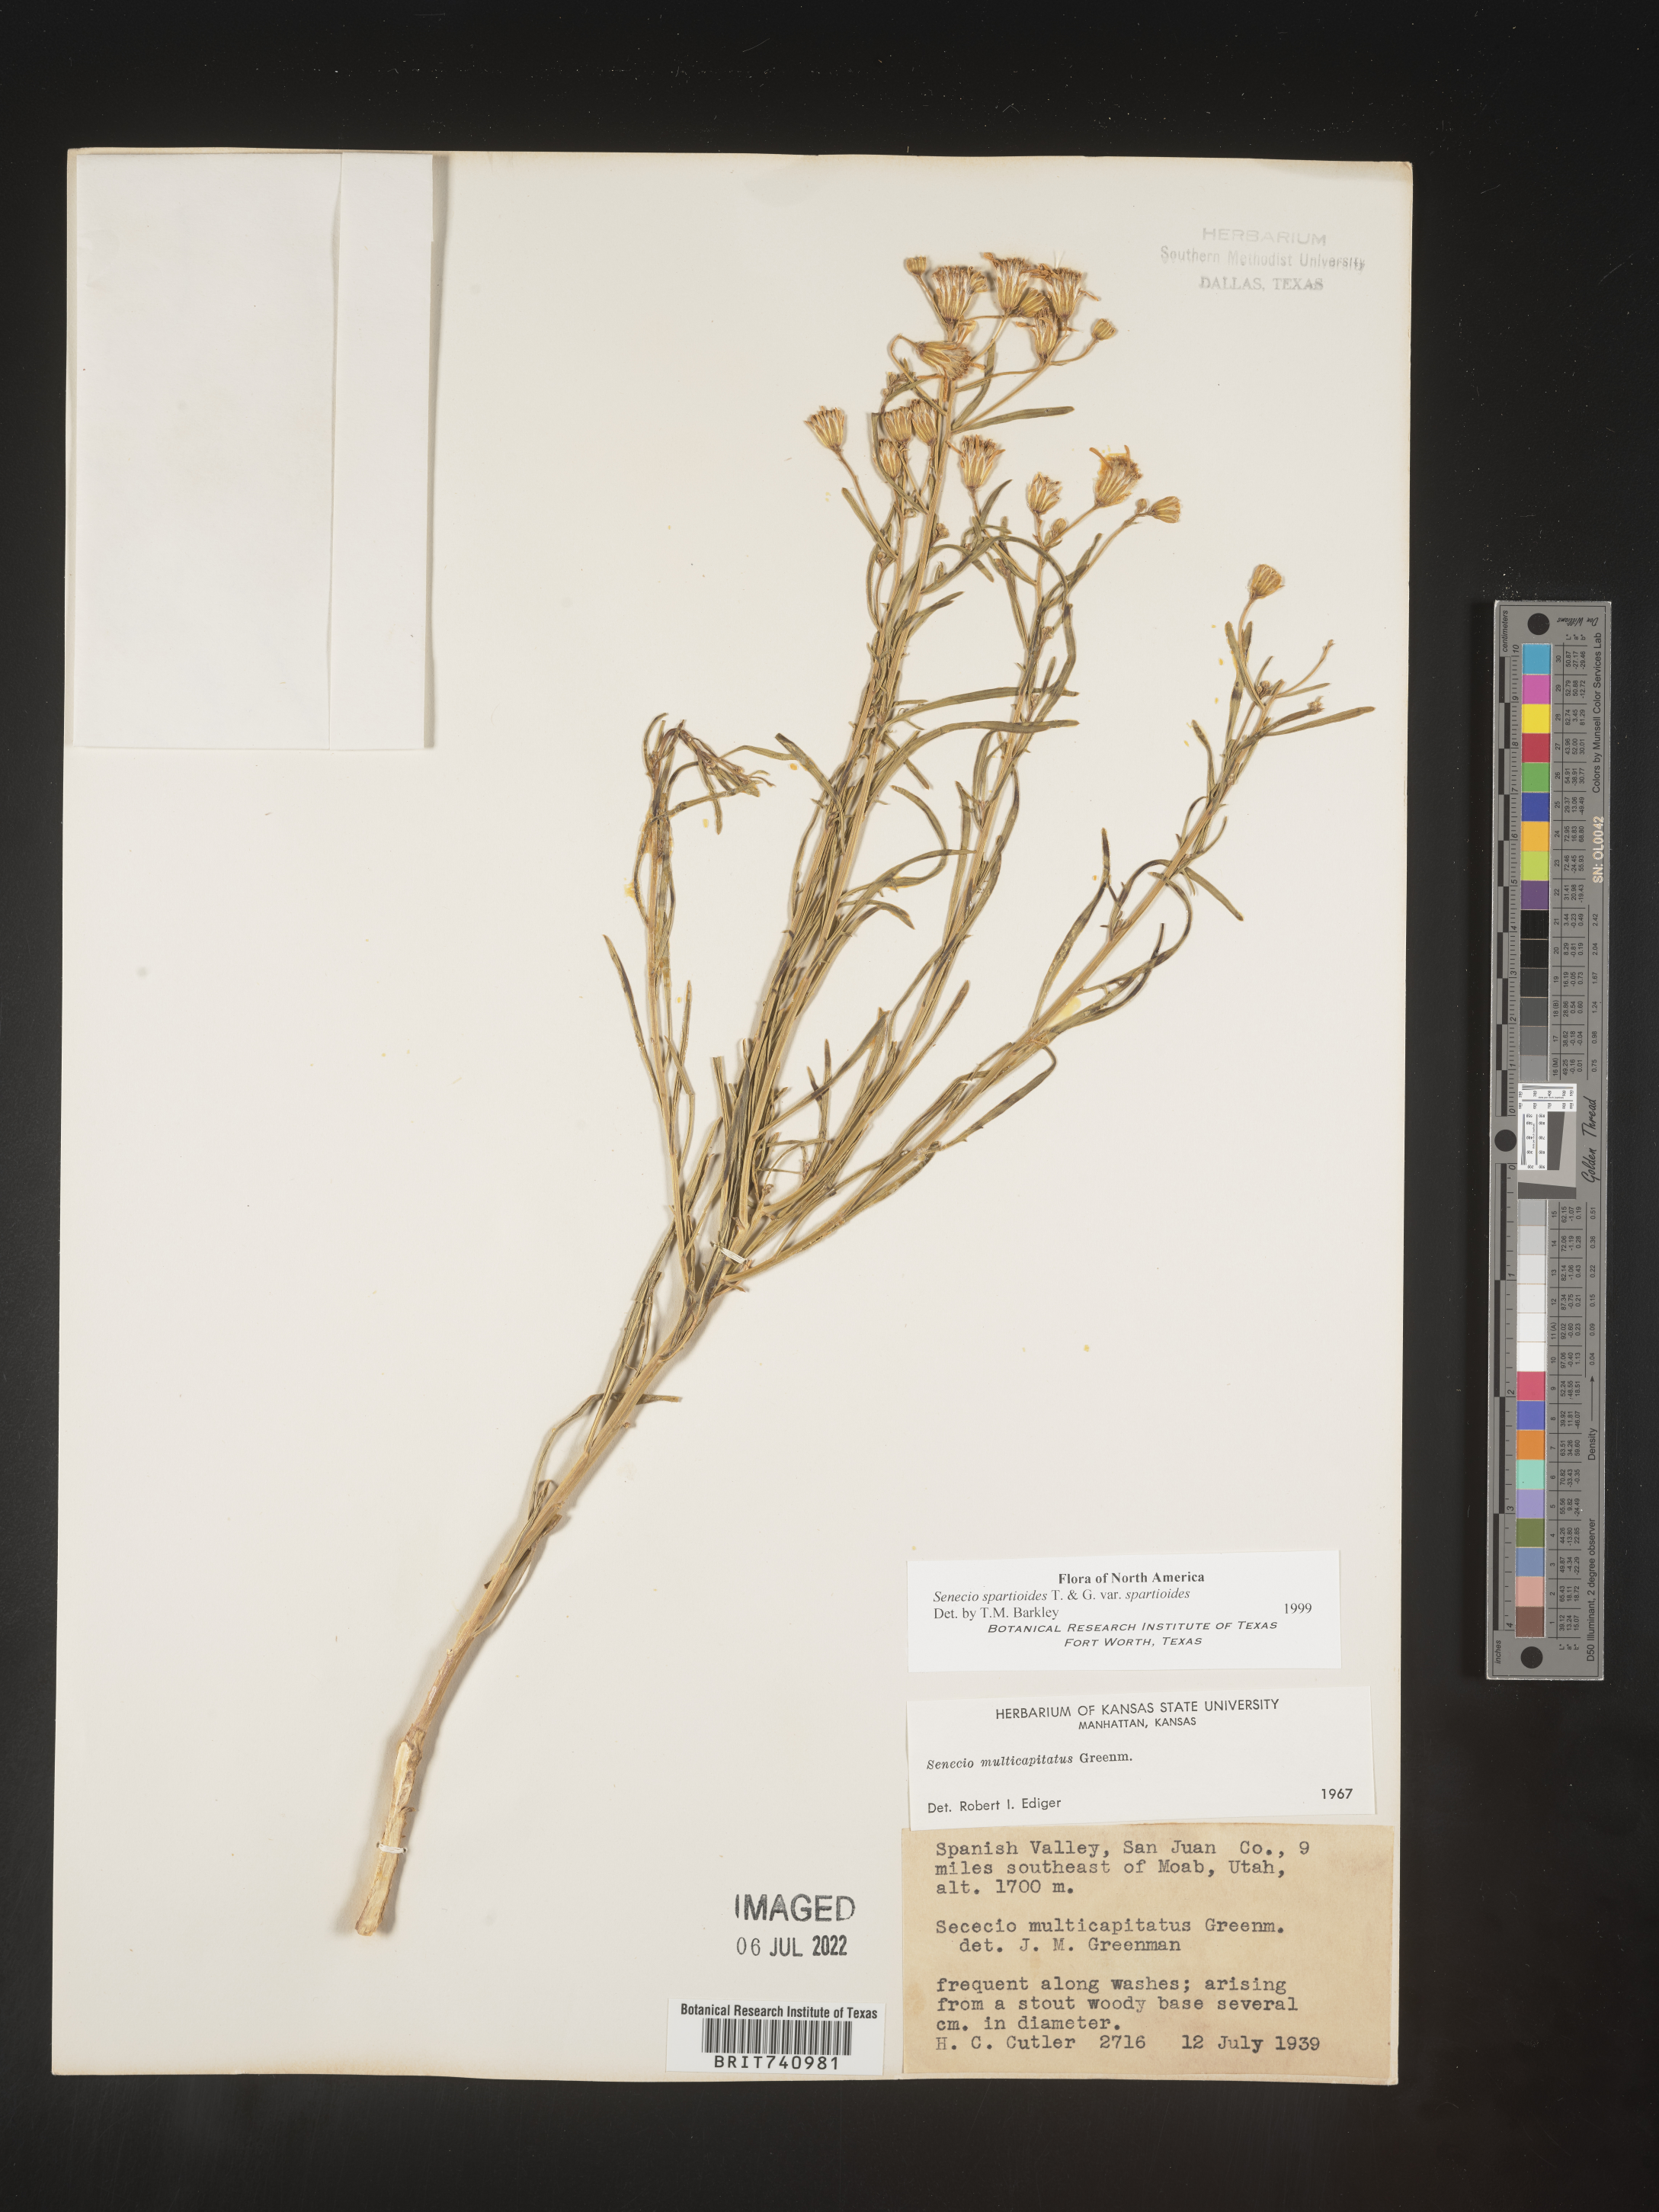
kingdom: Plantae
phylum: Tracheophyta
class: Magnoliopsida
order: Asterales
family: Asteraceae
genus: Senecio
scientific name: Senecio spartioides
